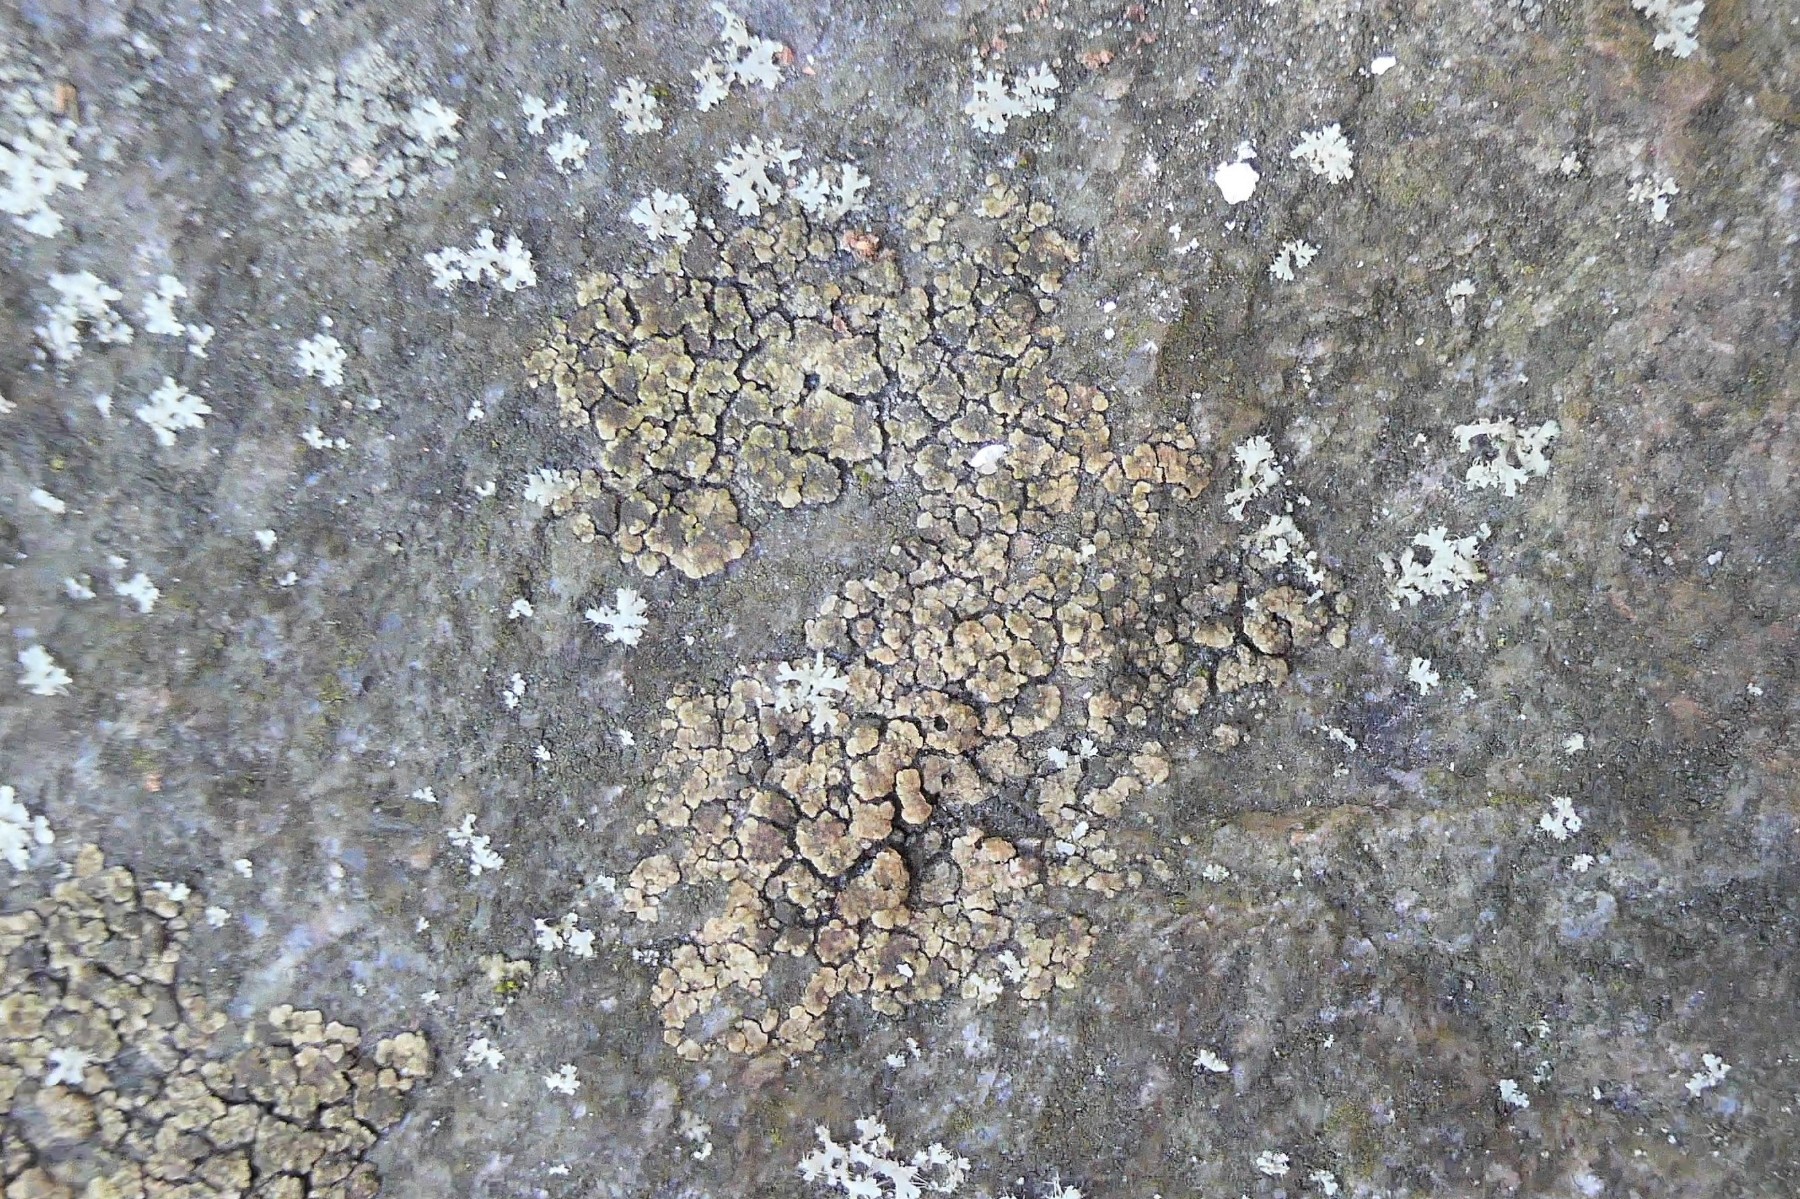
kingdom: Fungi
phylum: Ascomycota
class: Lecanoromycetes
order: Acarosporales
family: Acarosporaceae
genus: Acarospora
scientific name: Acarospora fuscata
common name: brun småsporelav
